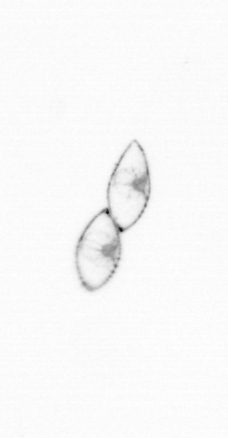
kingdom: Chromista
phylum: Myzozoa
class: Dinophyceae
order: Noctilucales
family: Noctilucaceae
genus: Noctiluca
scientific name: Noctiluca scintillans
